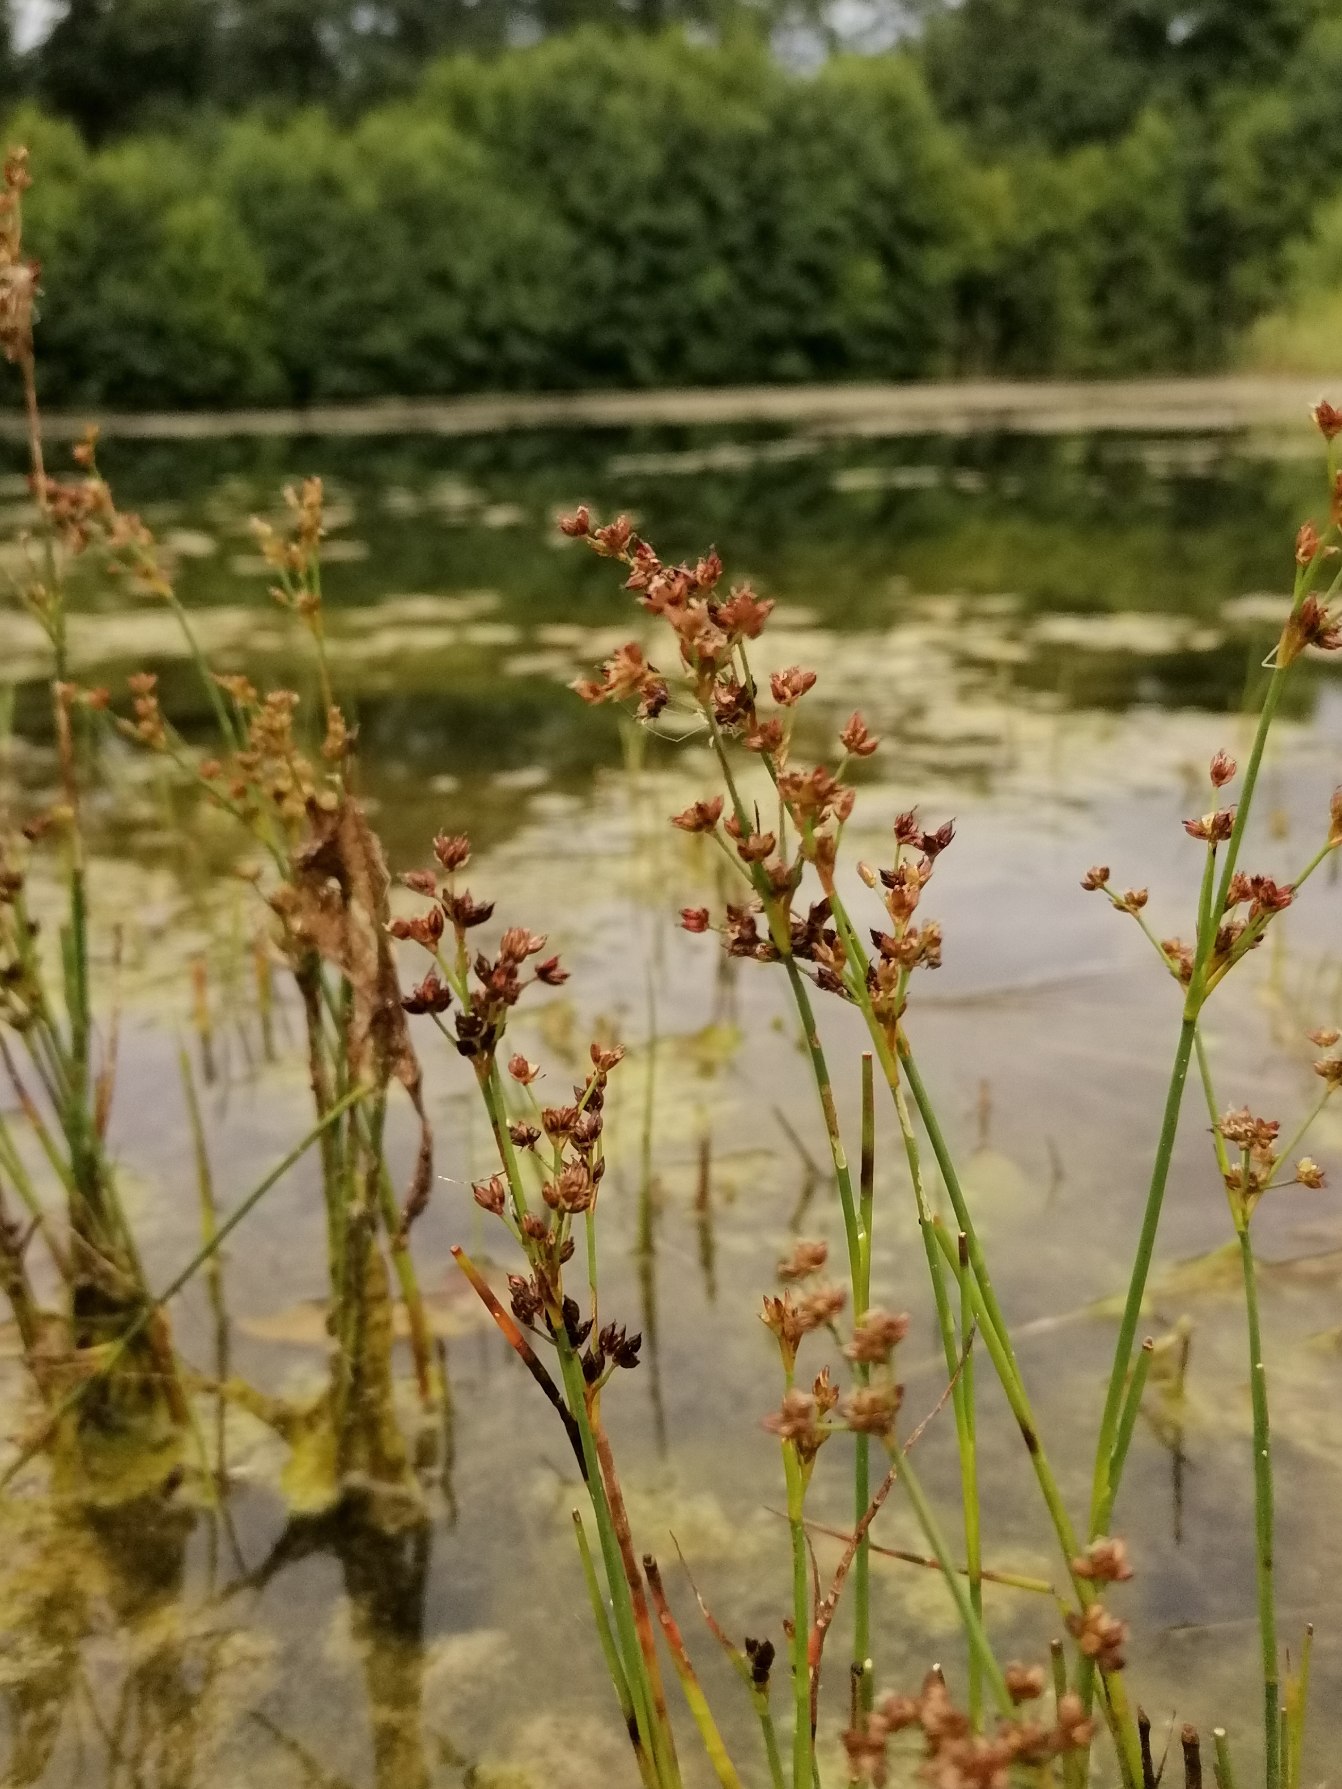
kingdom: Plantae
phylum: Tracheophyta
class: Liliopsida
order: Poales
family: Juncaceae
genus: Juncus
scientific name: Juncus articulatus
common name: Glanskapslet siv
